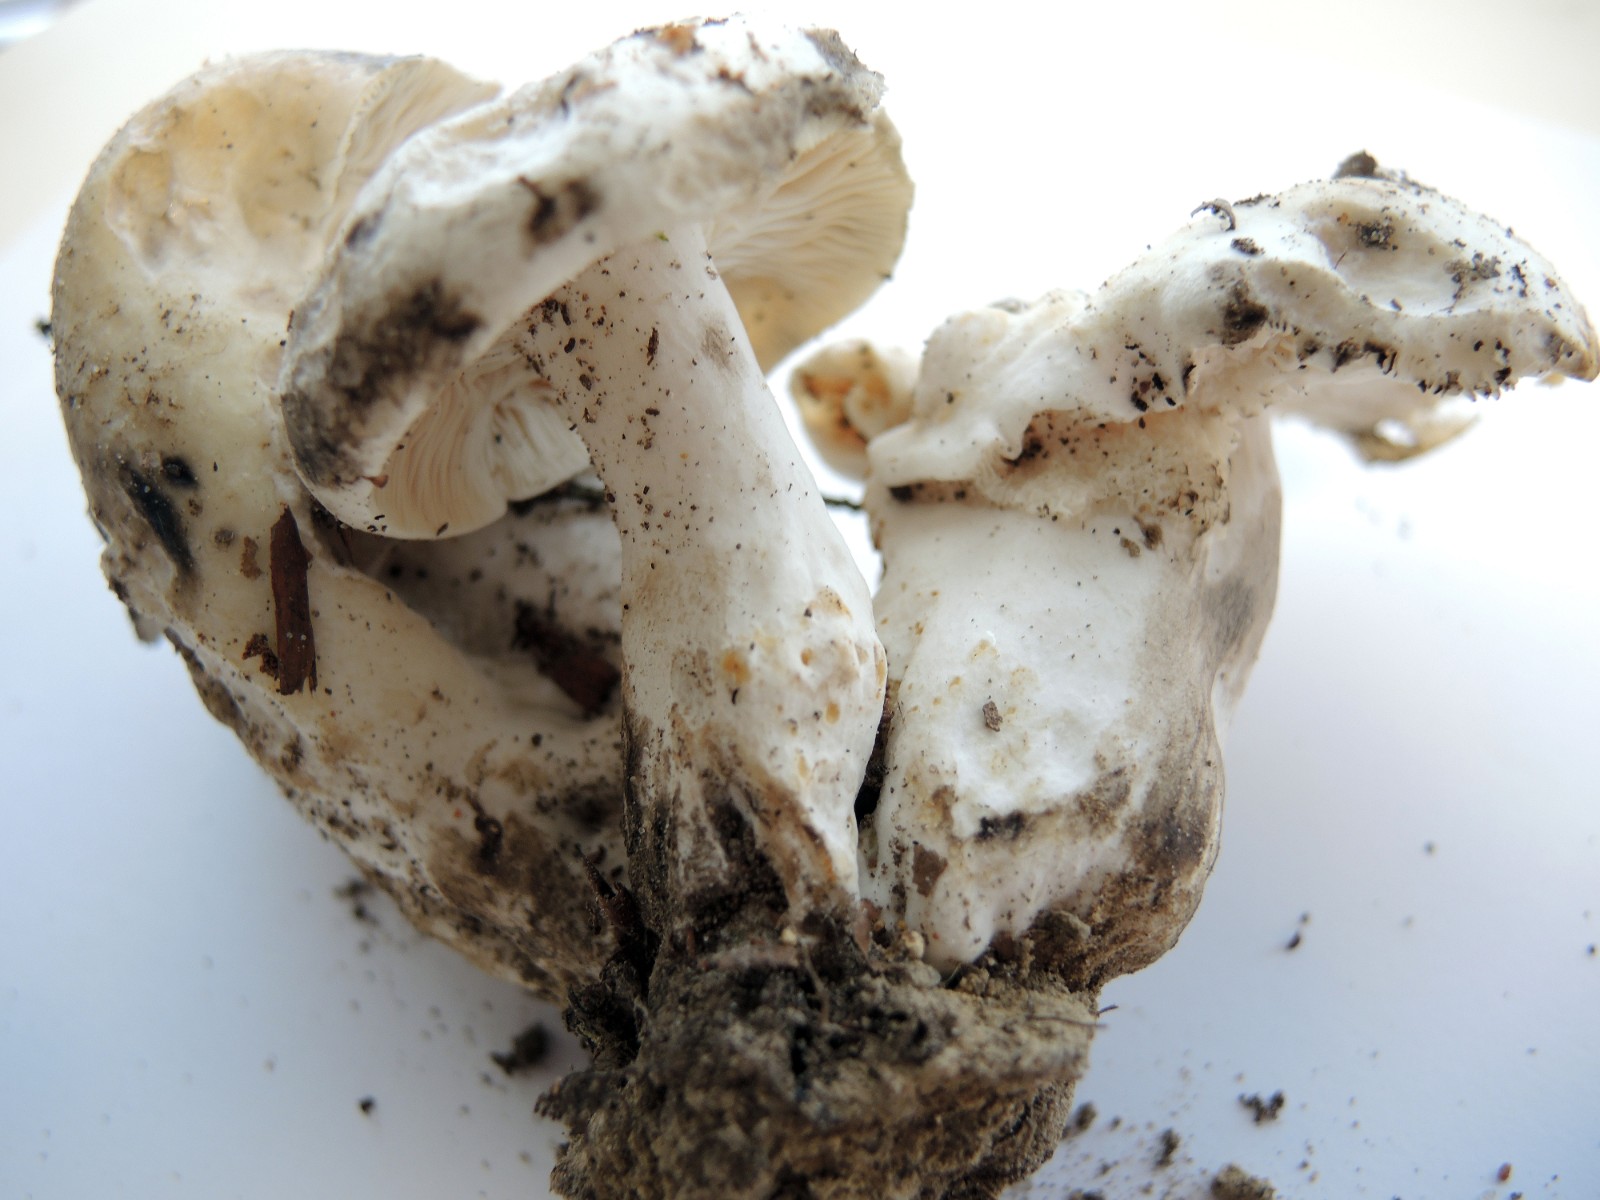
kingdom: Fungi
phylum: Basidiomycota
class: Agaricomycetes
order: Russulales
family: Russulaceae
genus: Russula
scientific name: Russula albonigra
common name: sorthvid skørhat
